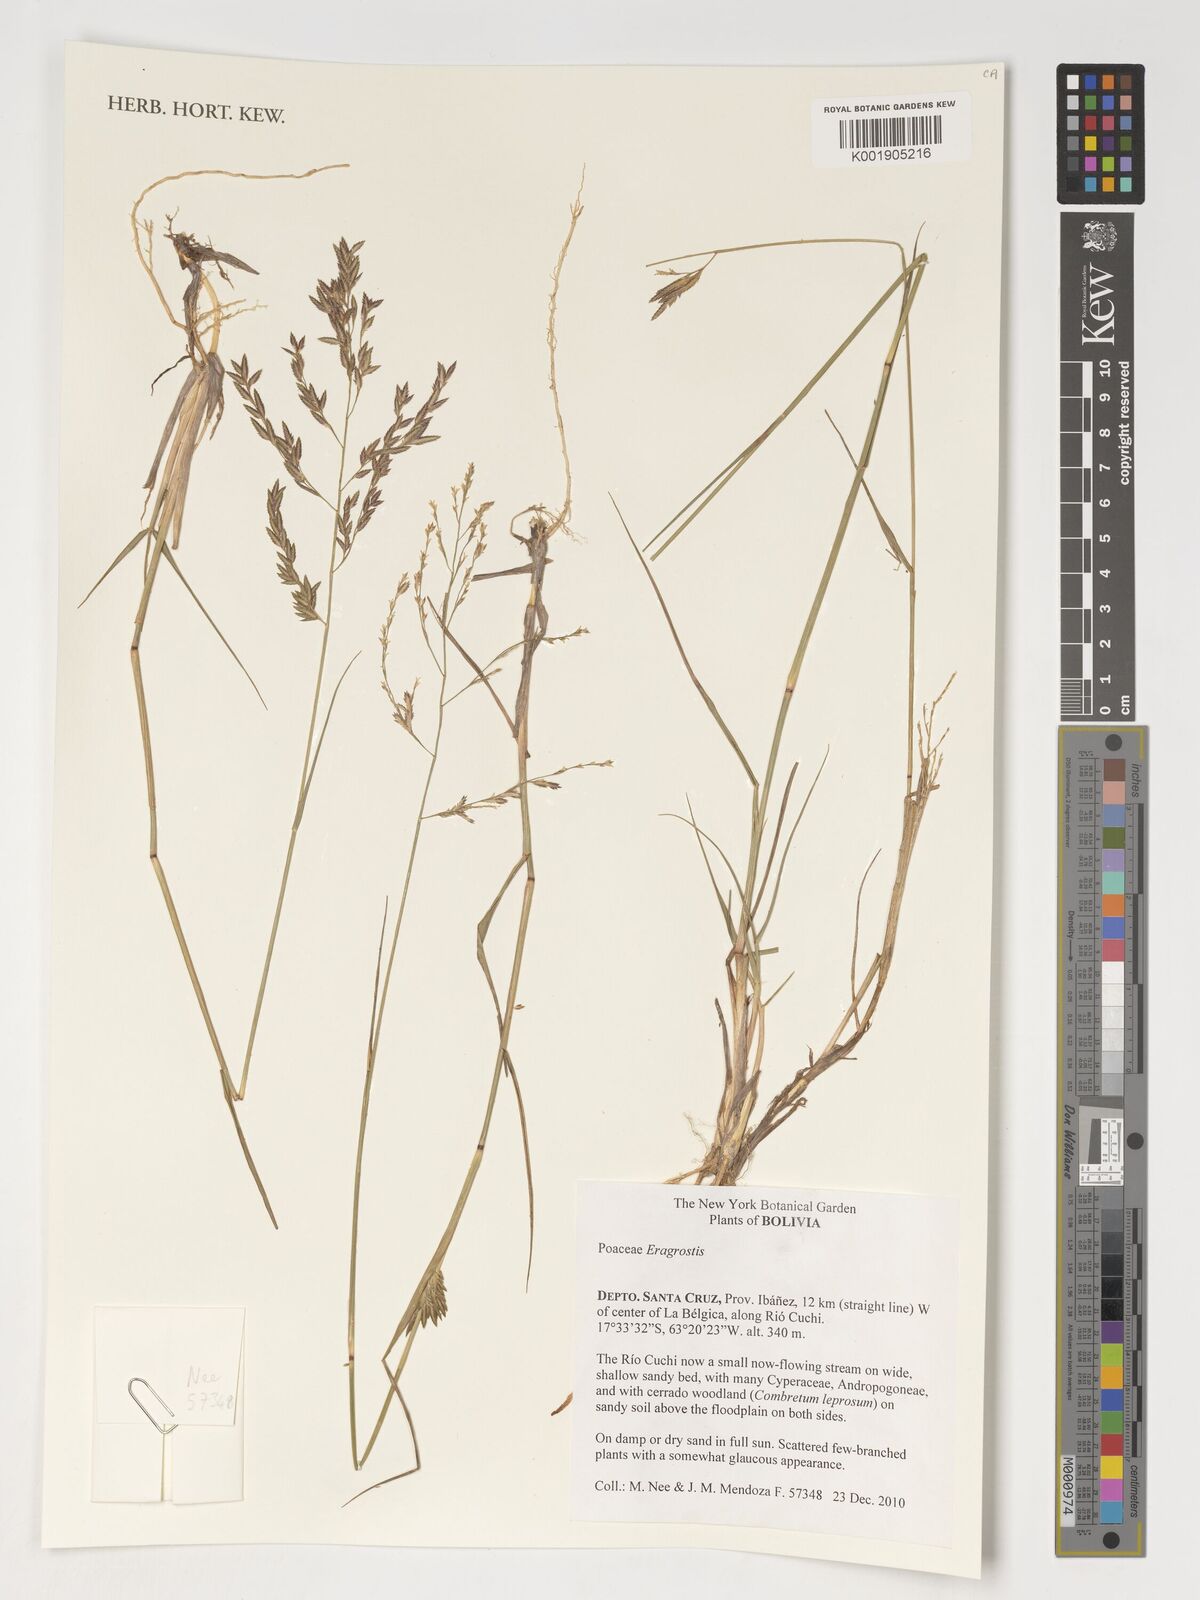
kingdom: Plantae
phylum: Tracheophyta
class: Liliopsida
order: Poales
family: Poaceae
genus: Eragrostis
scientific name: Eragrostis
